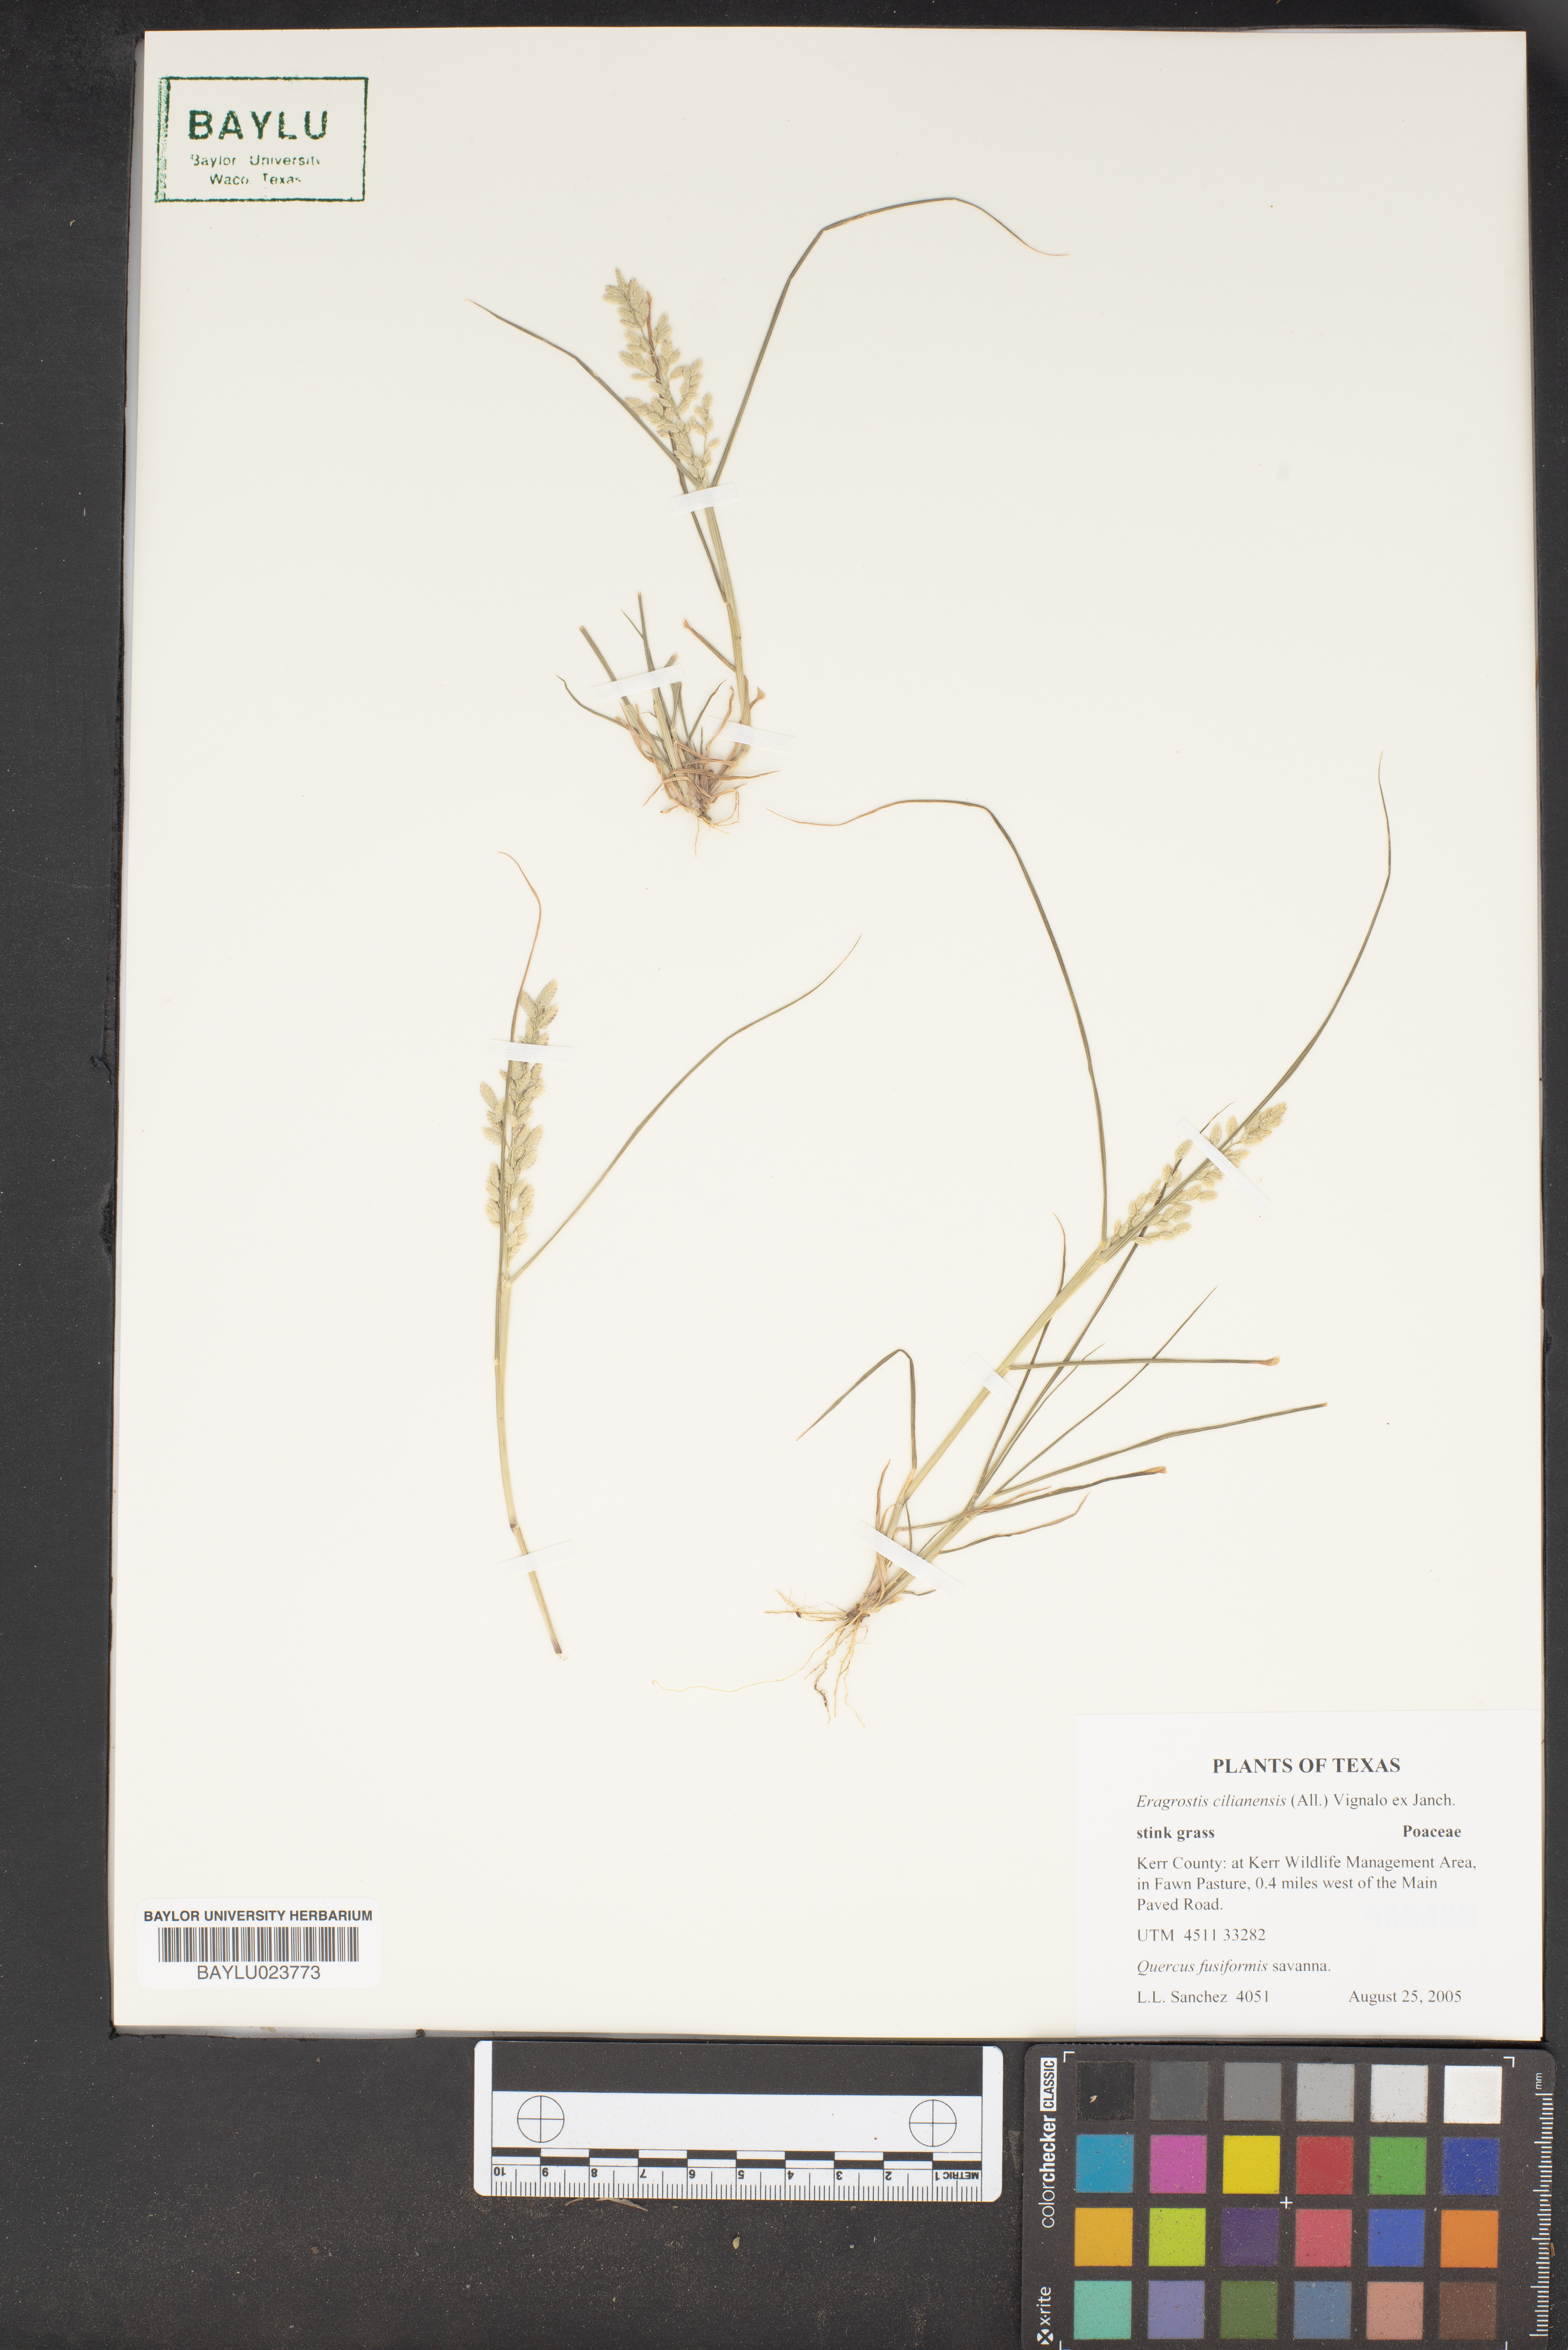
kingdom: Plantae
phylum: Tracheophyta
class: Liliopsida
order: Poales
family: Poaceae
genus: Eragrostis
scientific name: Eragrostis cilianensis
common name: Stinkgrass
